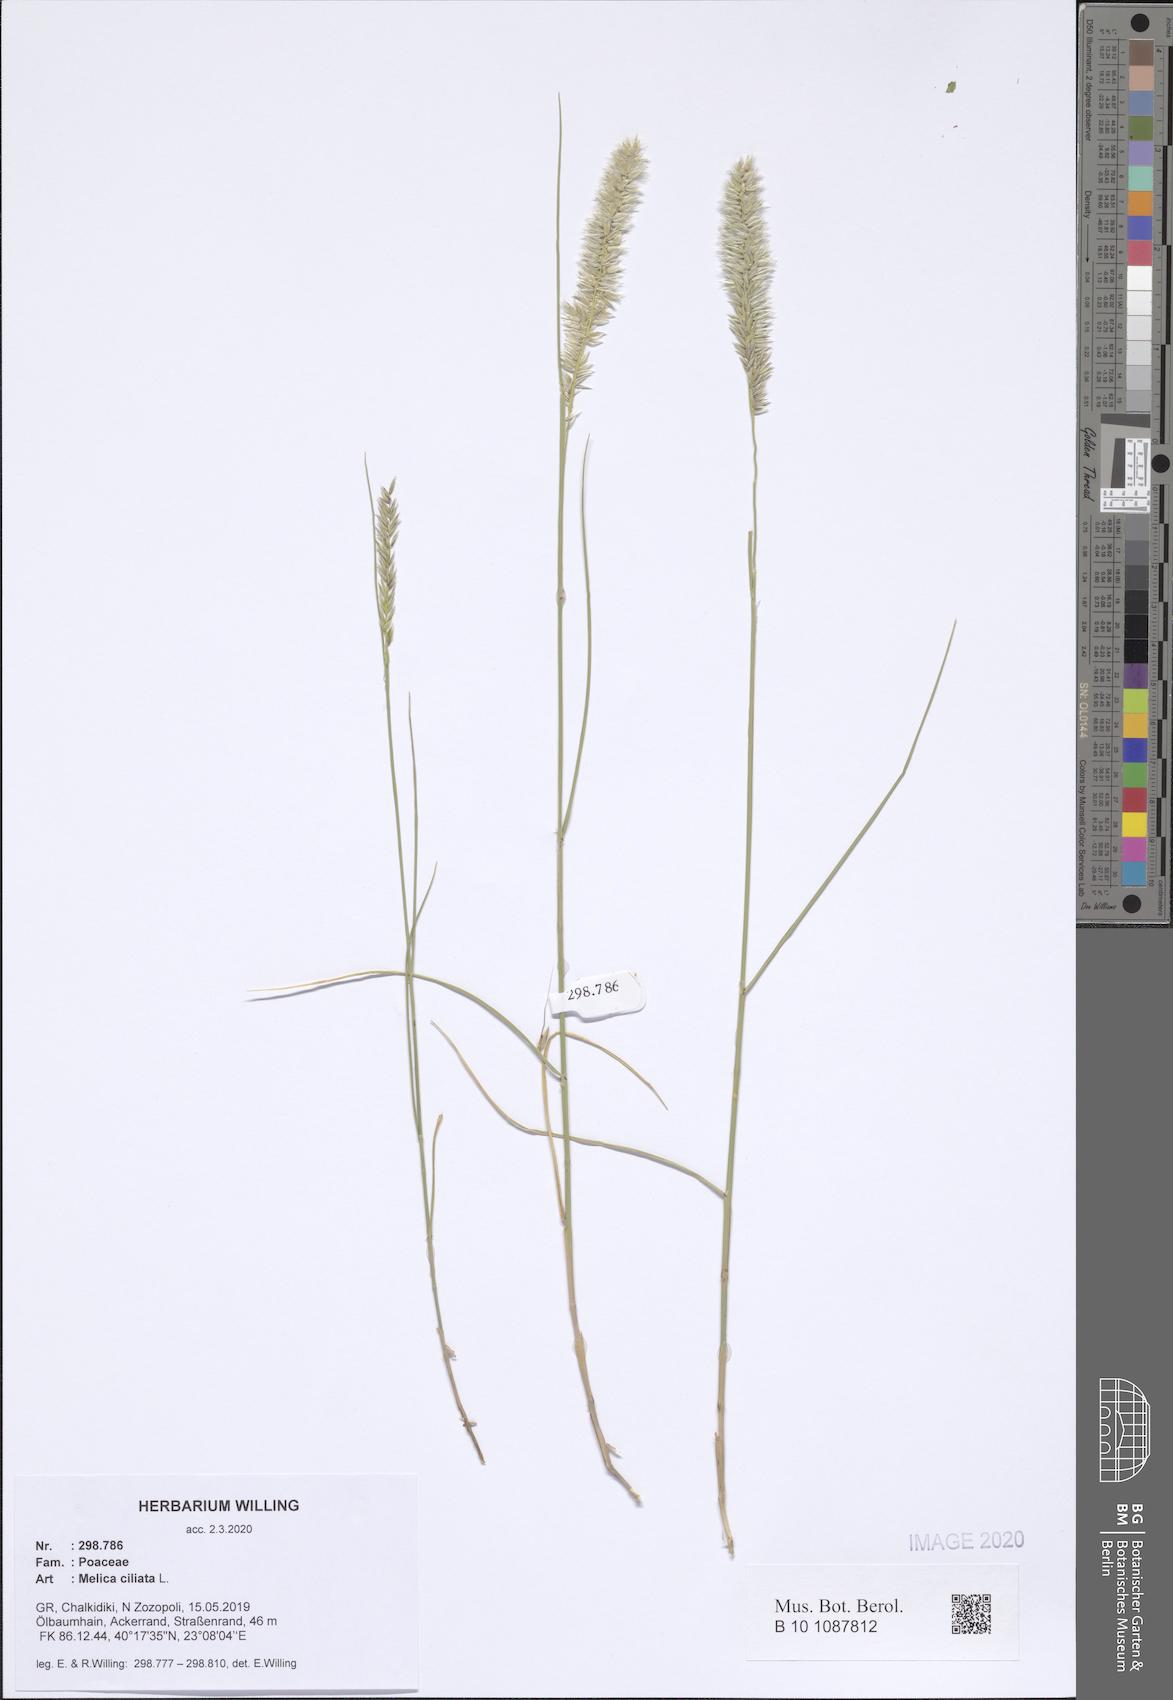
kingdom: Plantae
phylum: Tracheophyta
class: Liliopsida
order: Poales
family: Poaceae
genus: Melica
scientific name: Melica ciliata
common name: Hairy melicgrass
